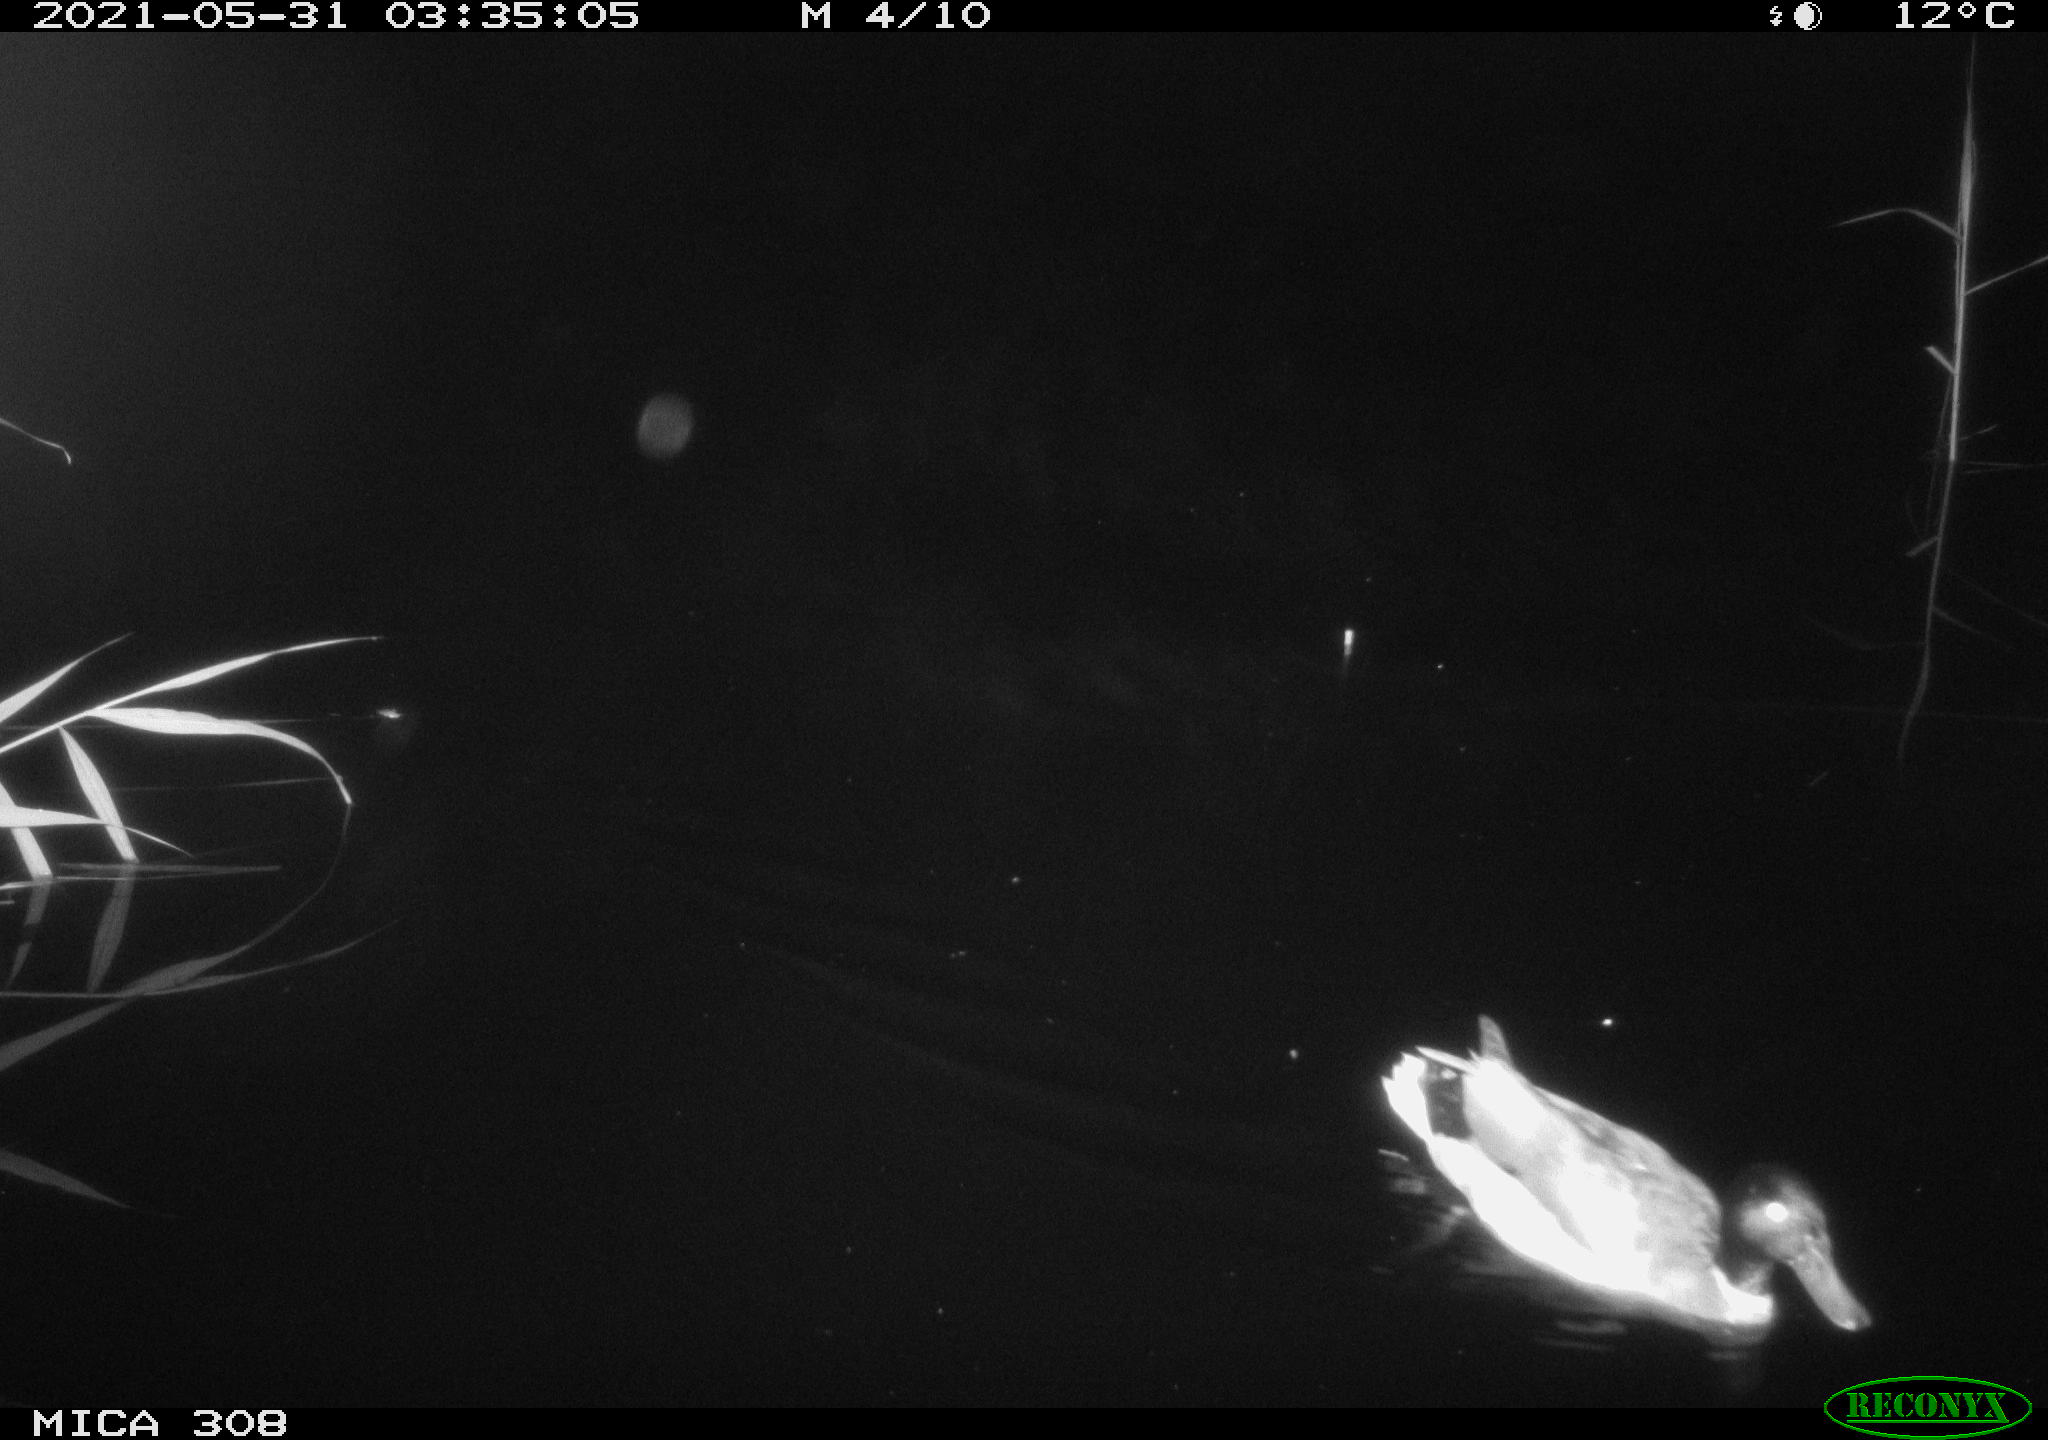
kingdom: Animalia
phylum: Chordata
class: Aves
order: Anseriformes
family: Anatidae
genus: Anas
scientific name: Anas platyrhynchos
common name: Mallard
